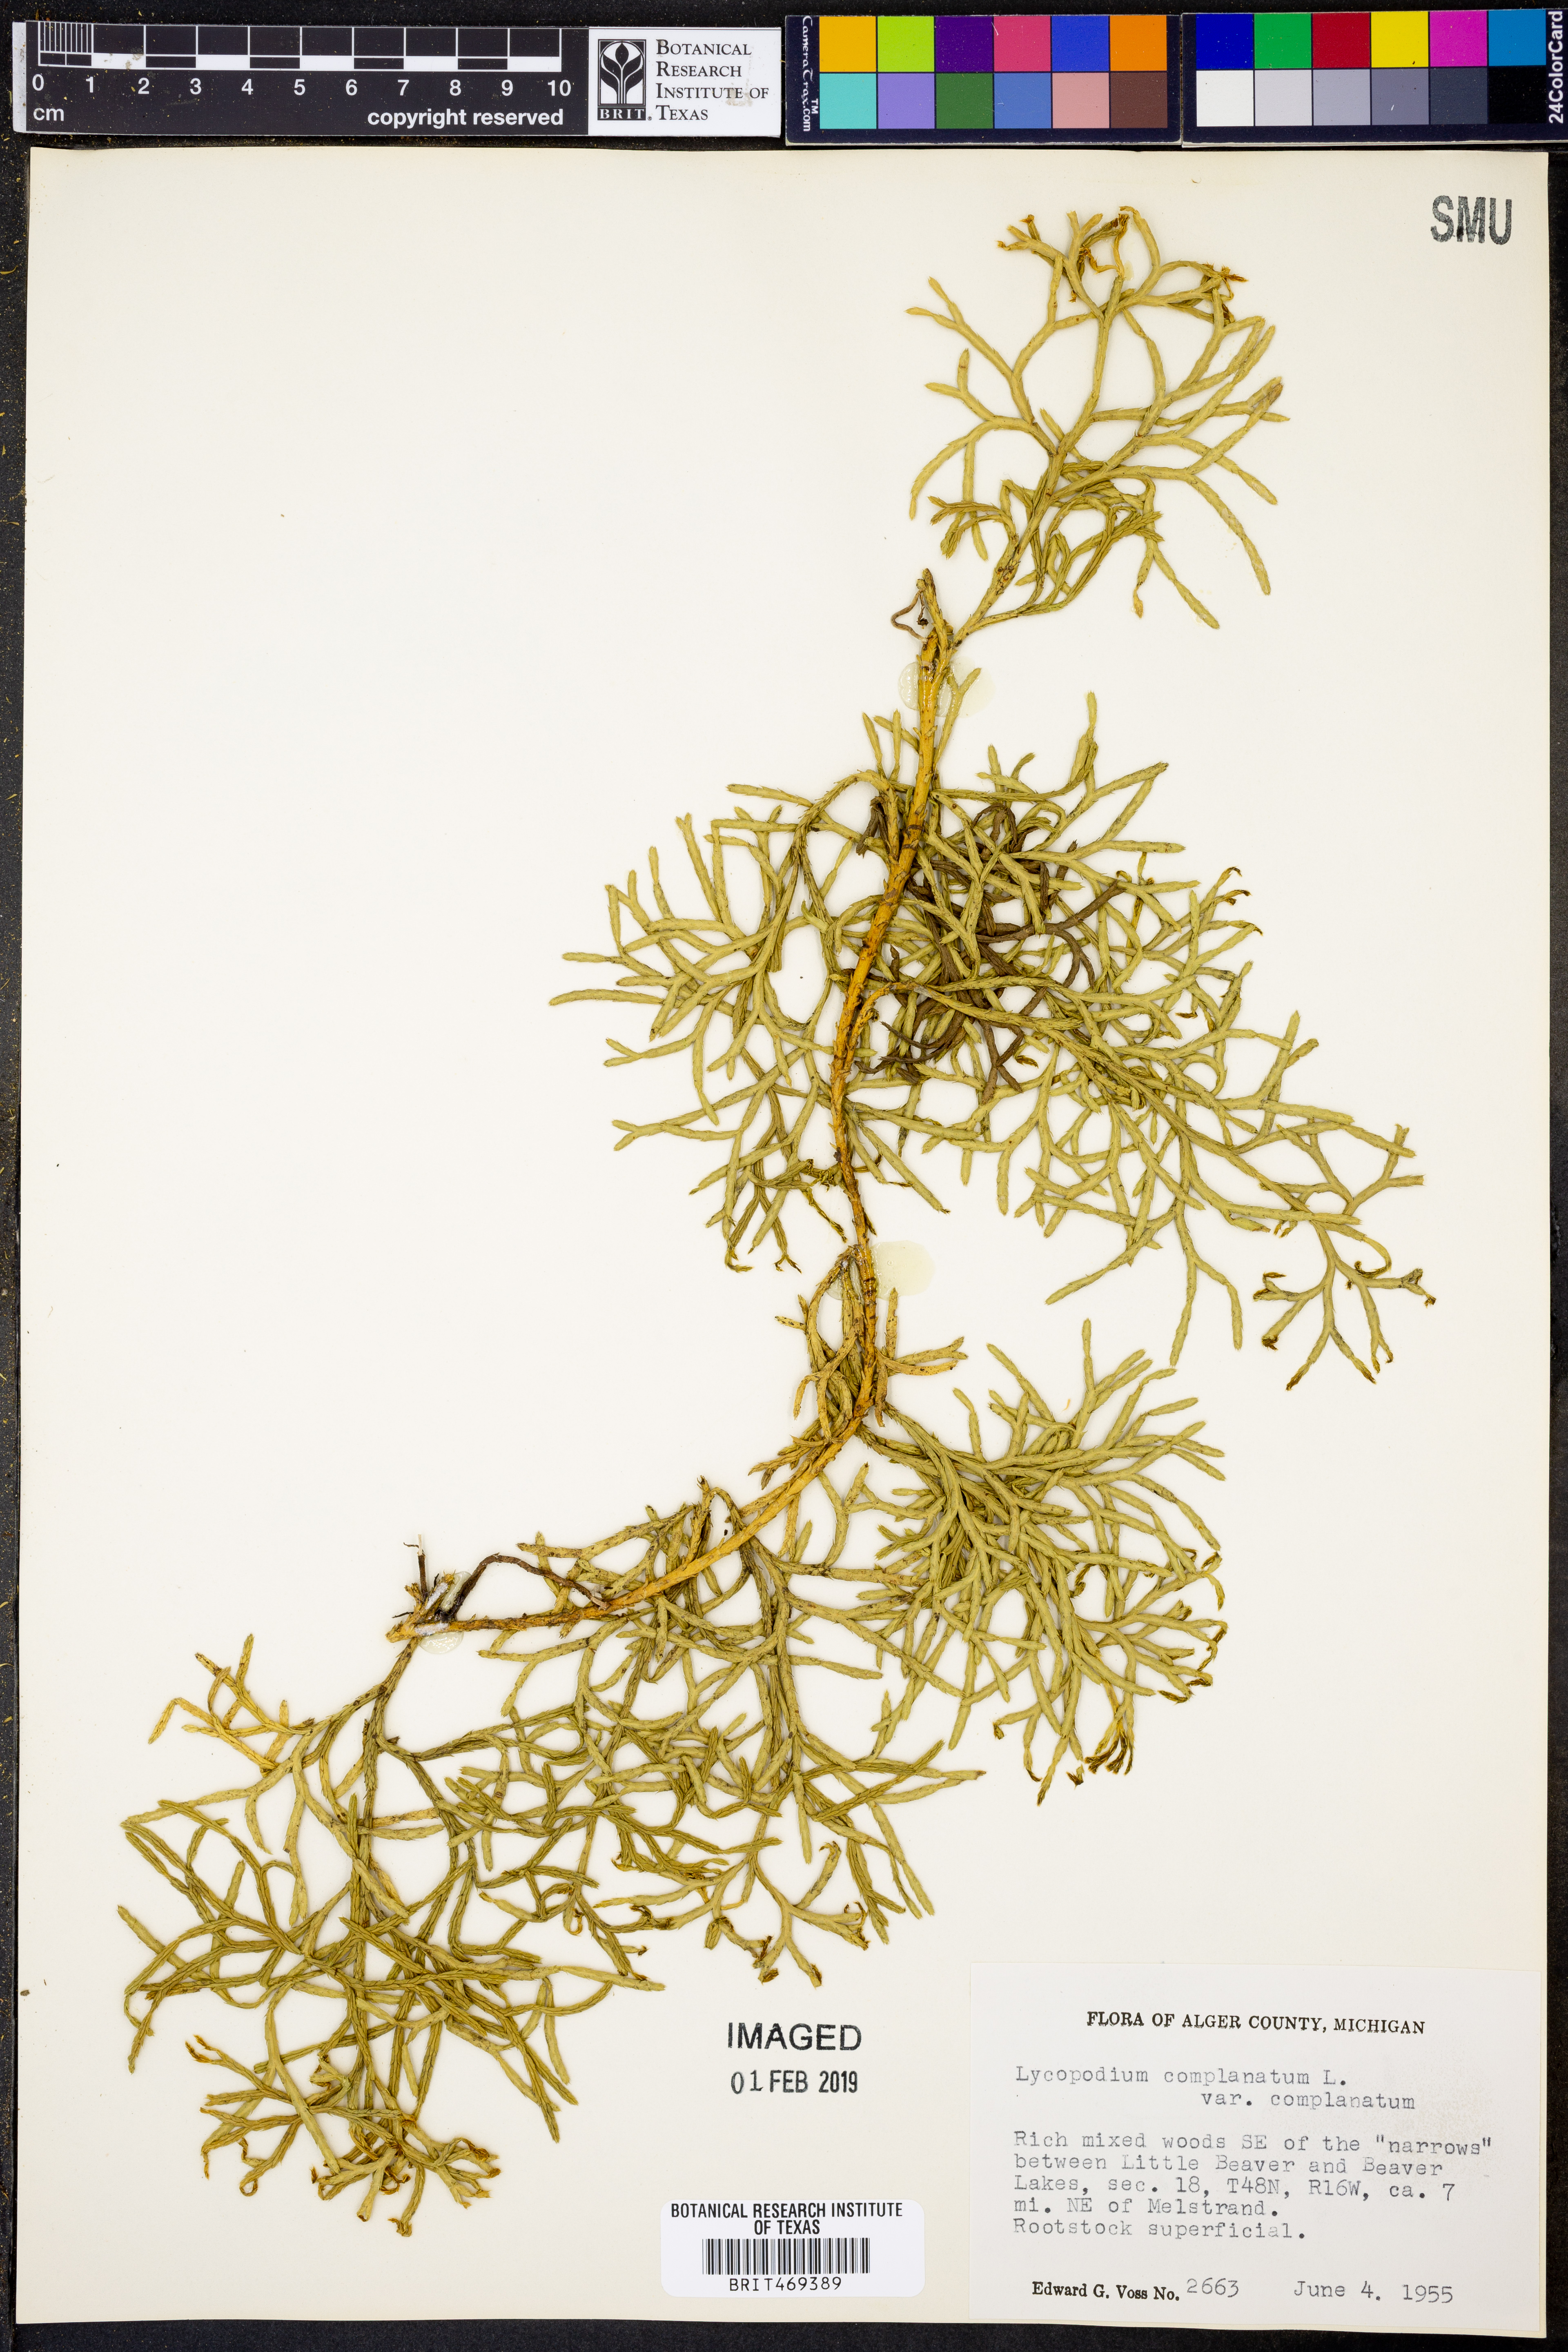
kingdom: Plantae
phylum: Tracheophyta
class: Lycopodiopsida
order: Lycopodiales
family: Lycopodiaceae
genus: Diphasiastrum
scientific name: Diphasiastrum complanatum
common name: Northern running-pine
